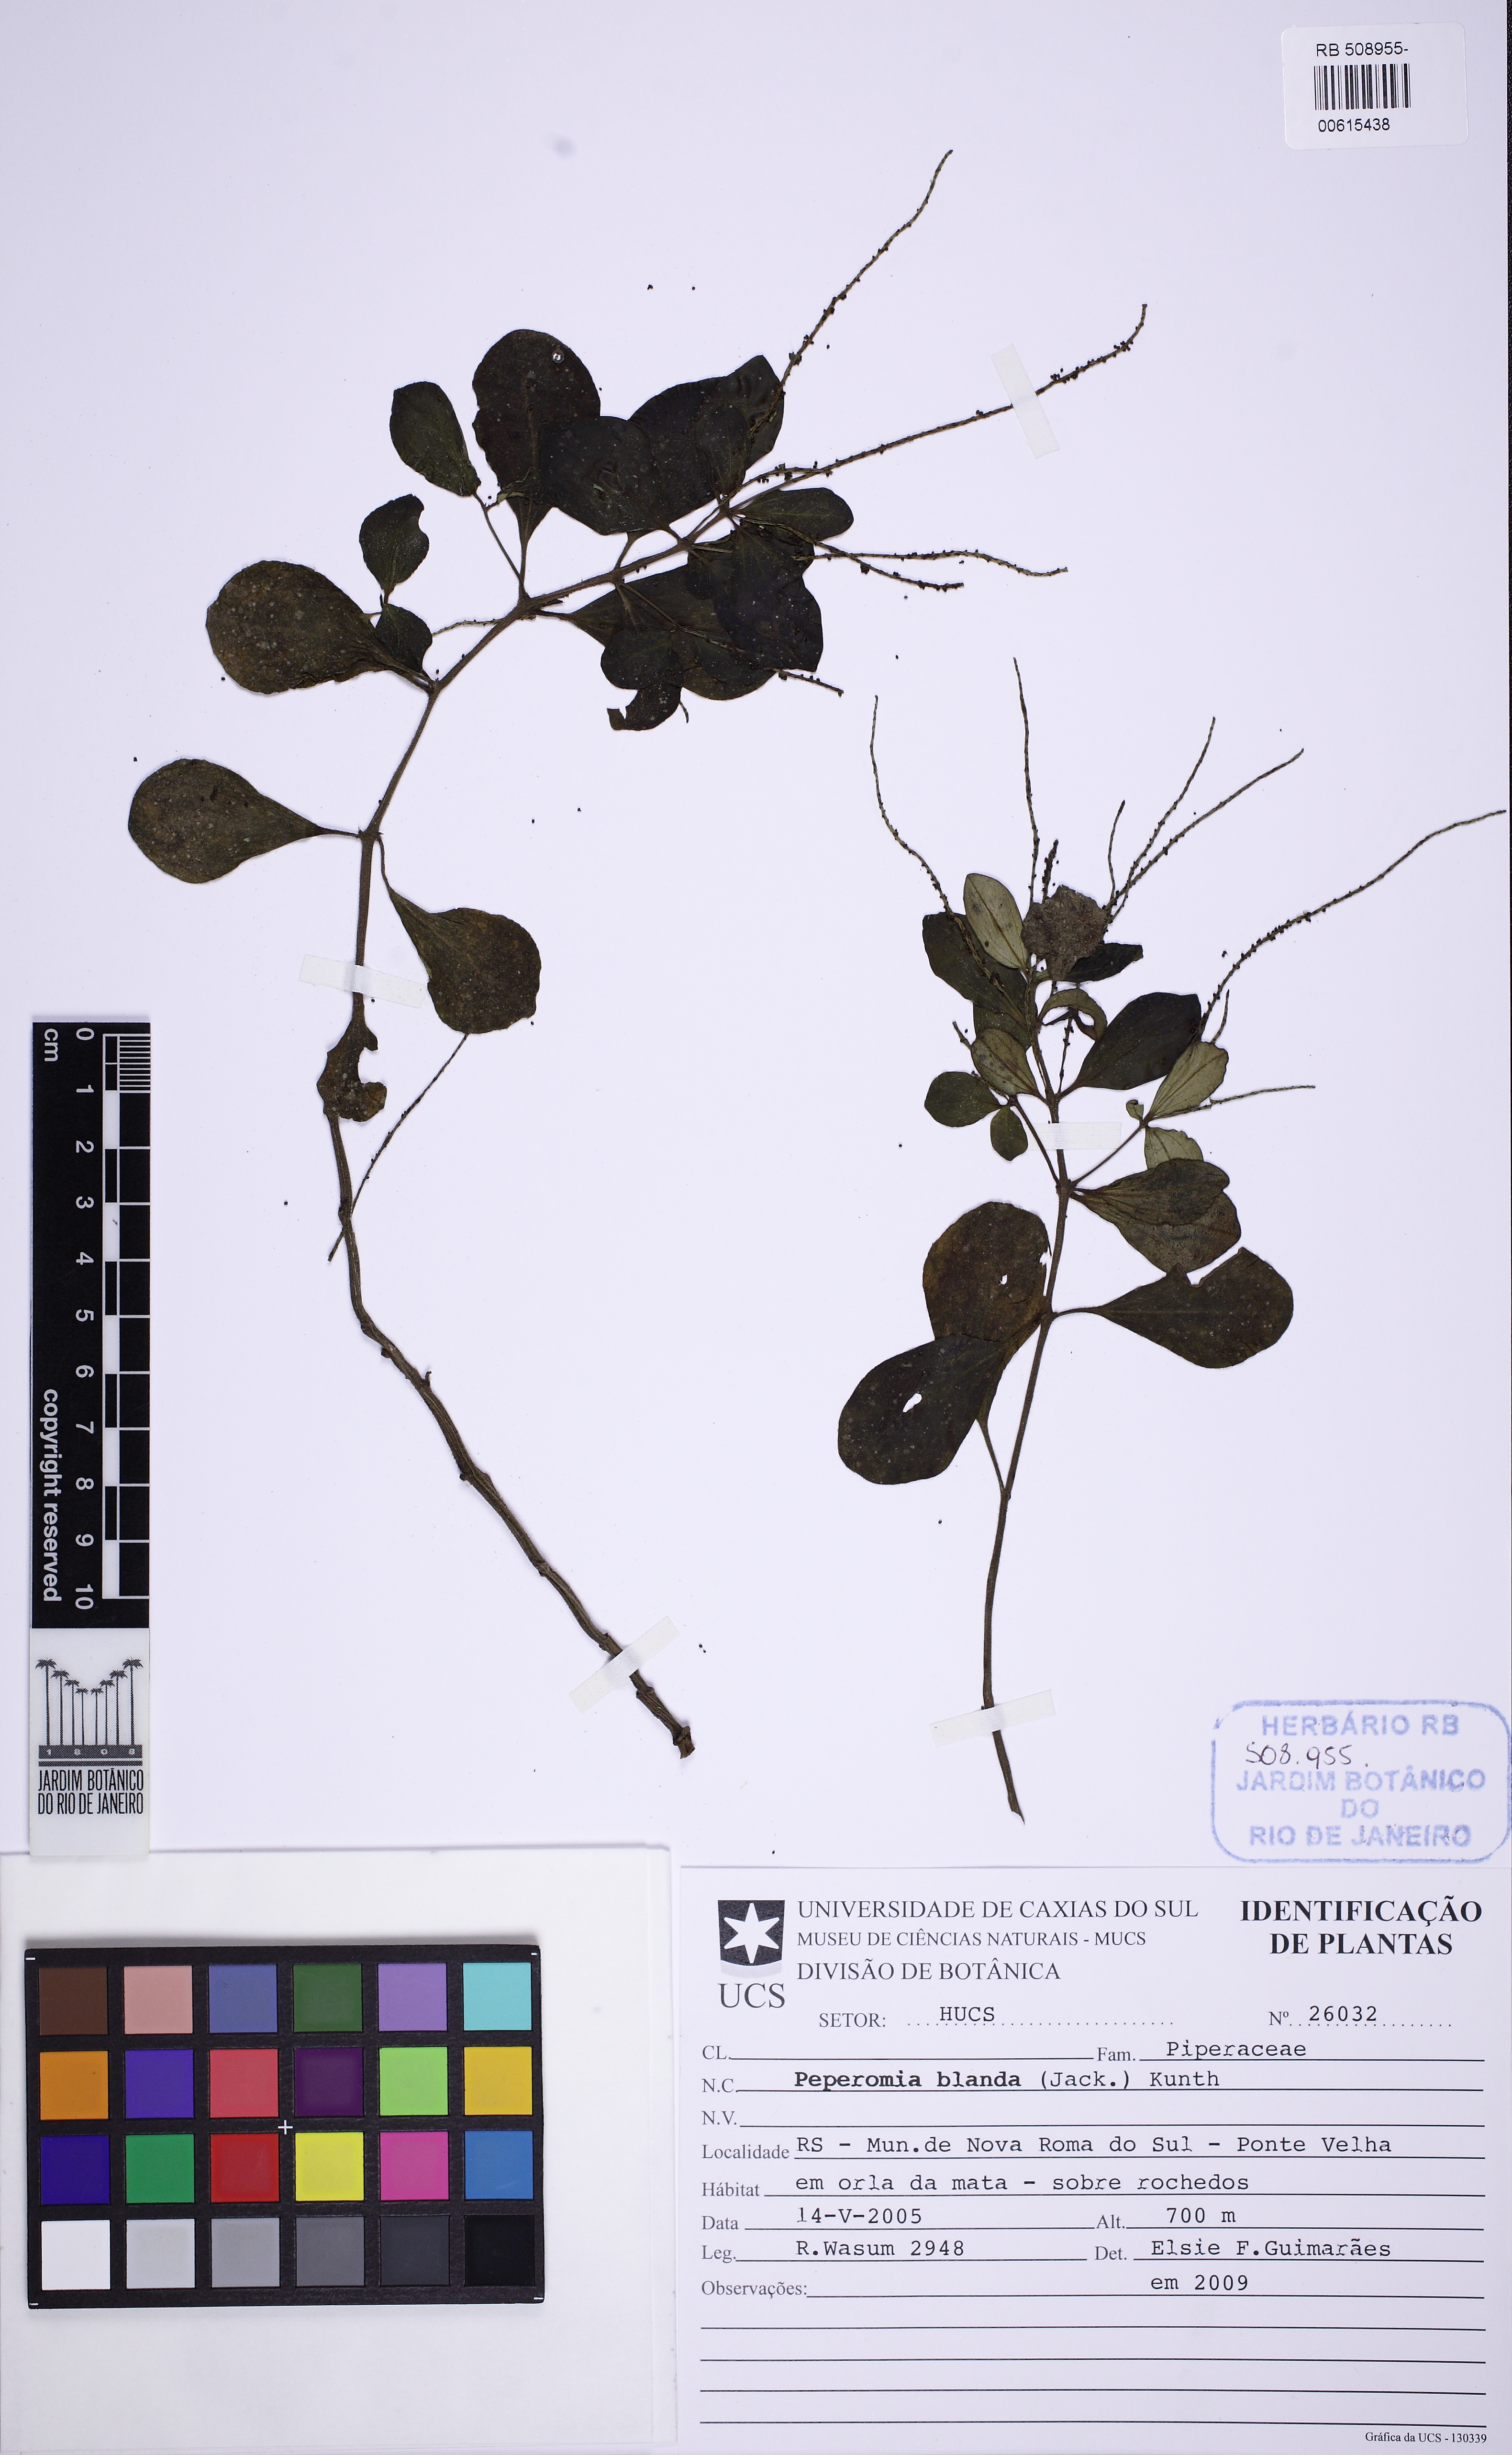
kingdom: Plantae
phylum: Tracheophyta
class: Magnoliopsida
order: Piperales
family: Piperaceae
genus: Peperomia
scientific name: Peperomia blanda
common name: Arid-land peperomia
